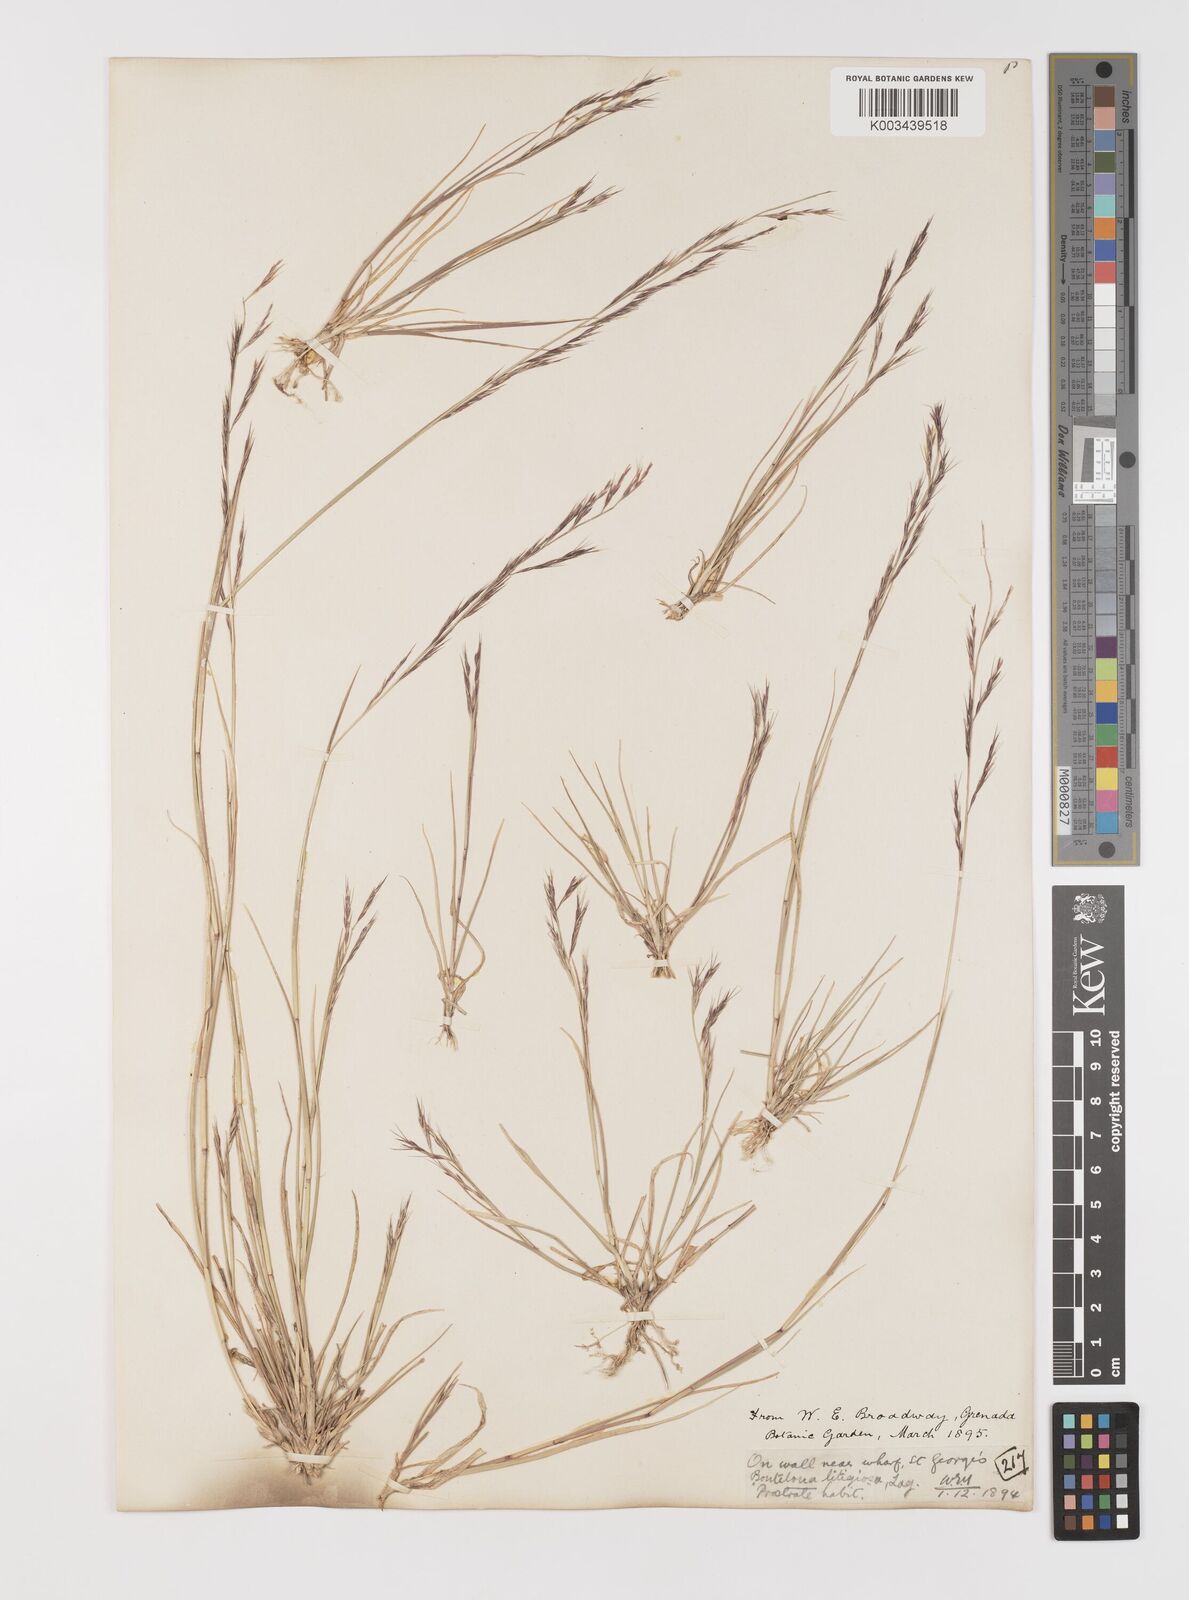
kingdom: Plantae
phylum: Tracheophyta
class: Liliopsida
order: Poales
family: Poaceae
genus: Bouteloua
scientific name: Bouteloua americana
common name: Mule grass
